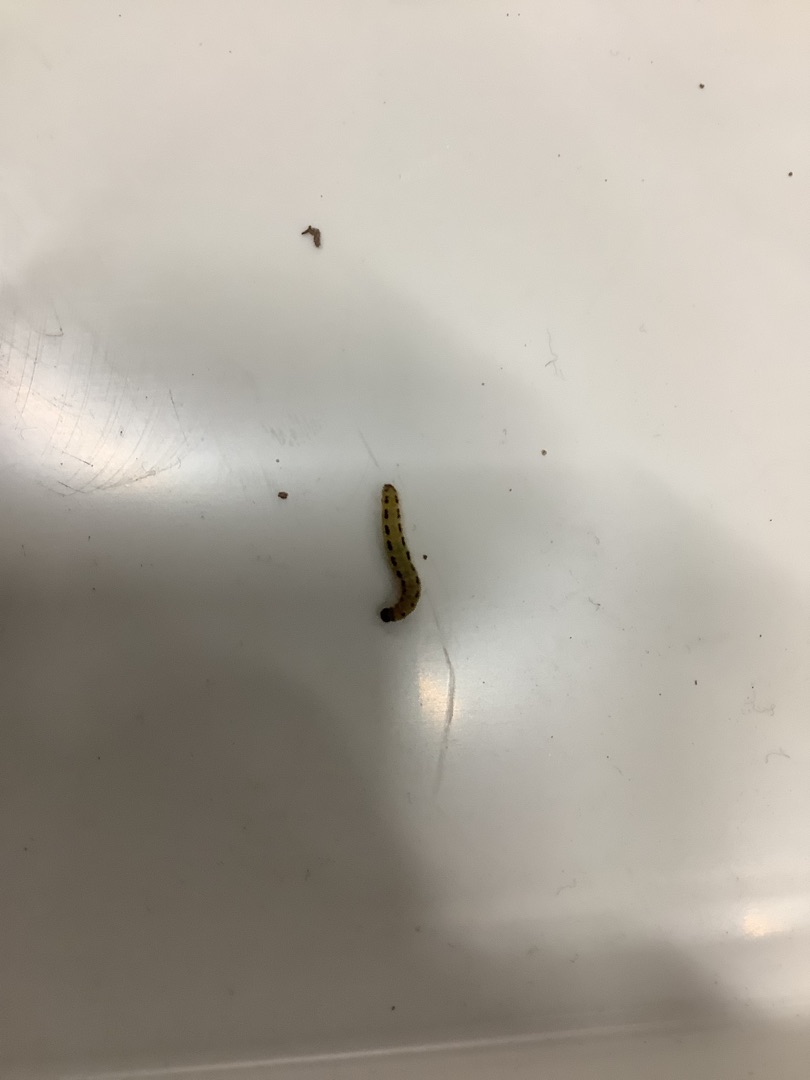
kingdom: Animalia
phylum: Arthropoda
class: Insecta
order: Lepidoptera
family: Yponomeutidae
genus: Yponomeuta
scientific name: Yponomeuta
